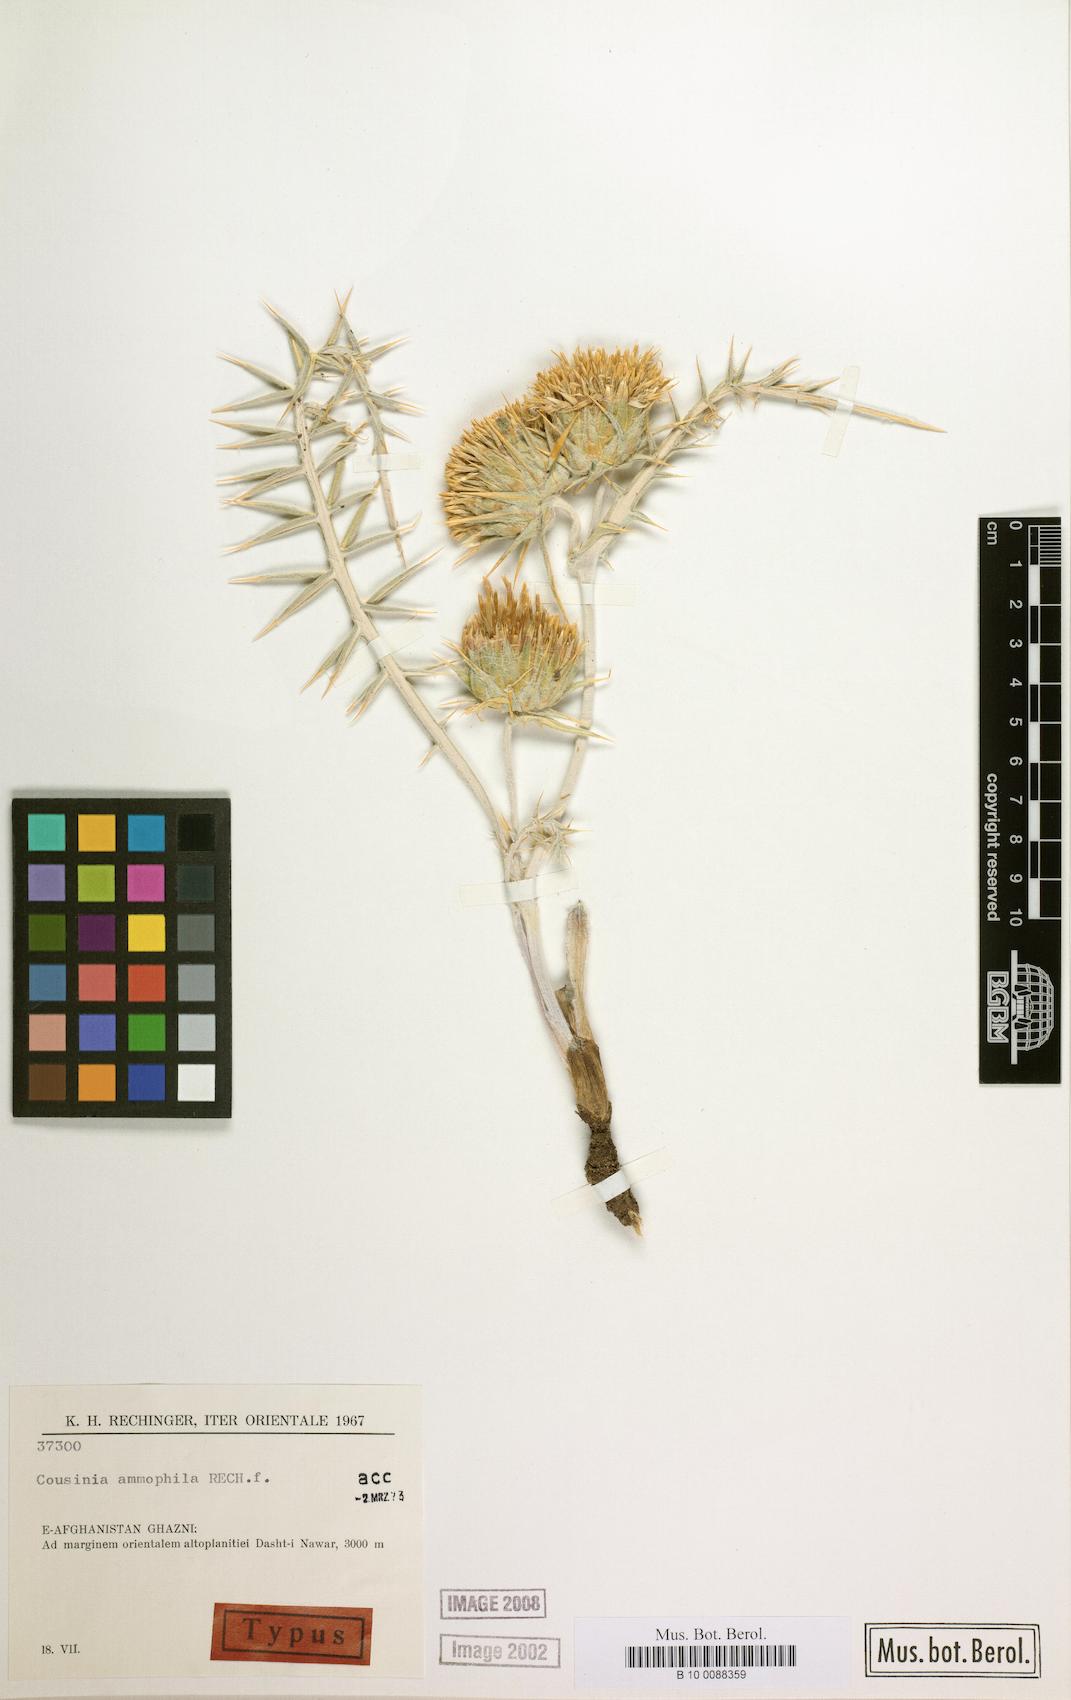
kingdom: Plantae
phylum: Tracheophyta
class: Magnoliopsida
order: Asterales
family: Asteraceae
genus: Cousinia
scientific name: Cousinia ammophila
